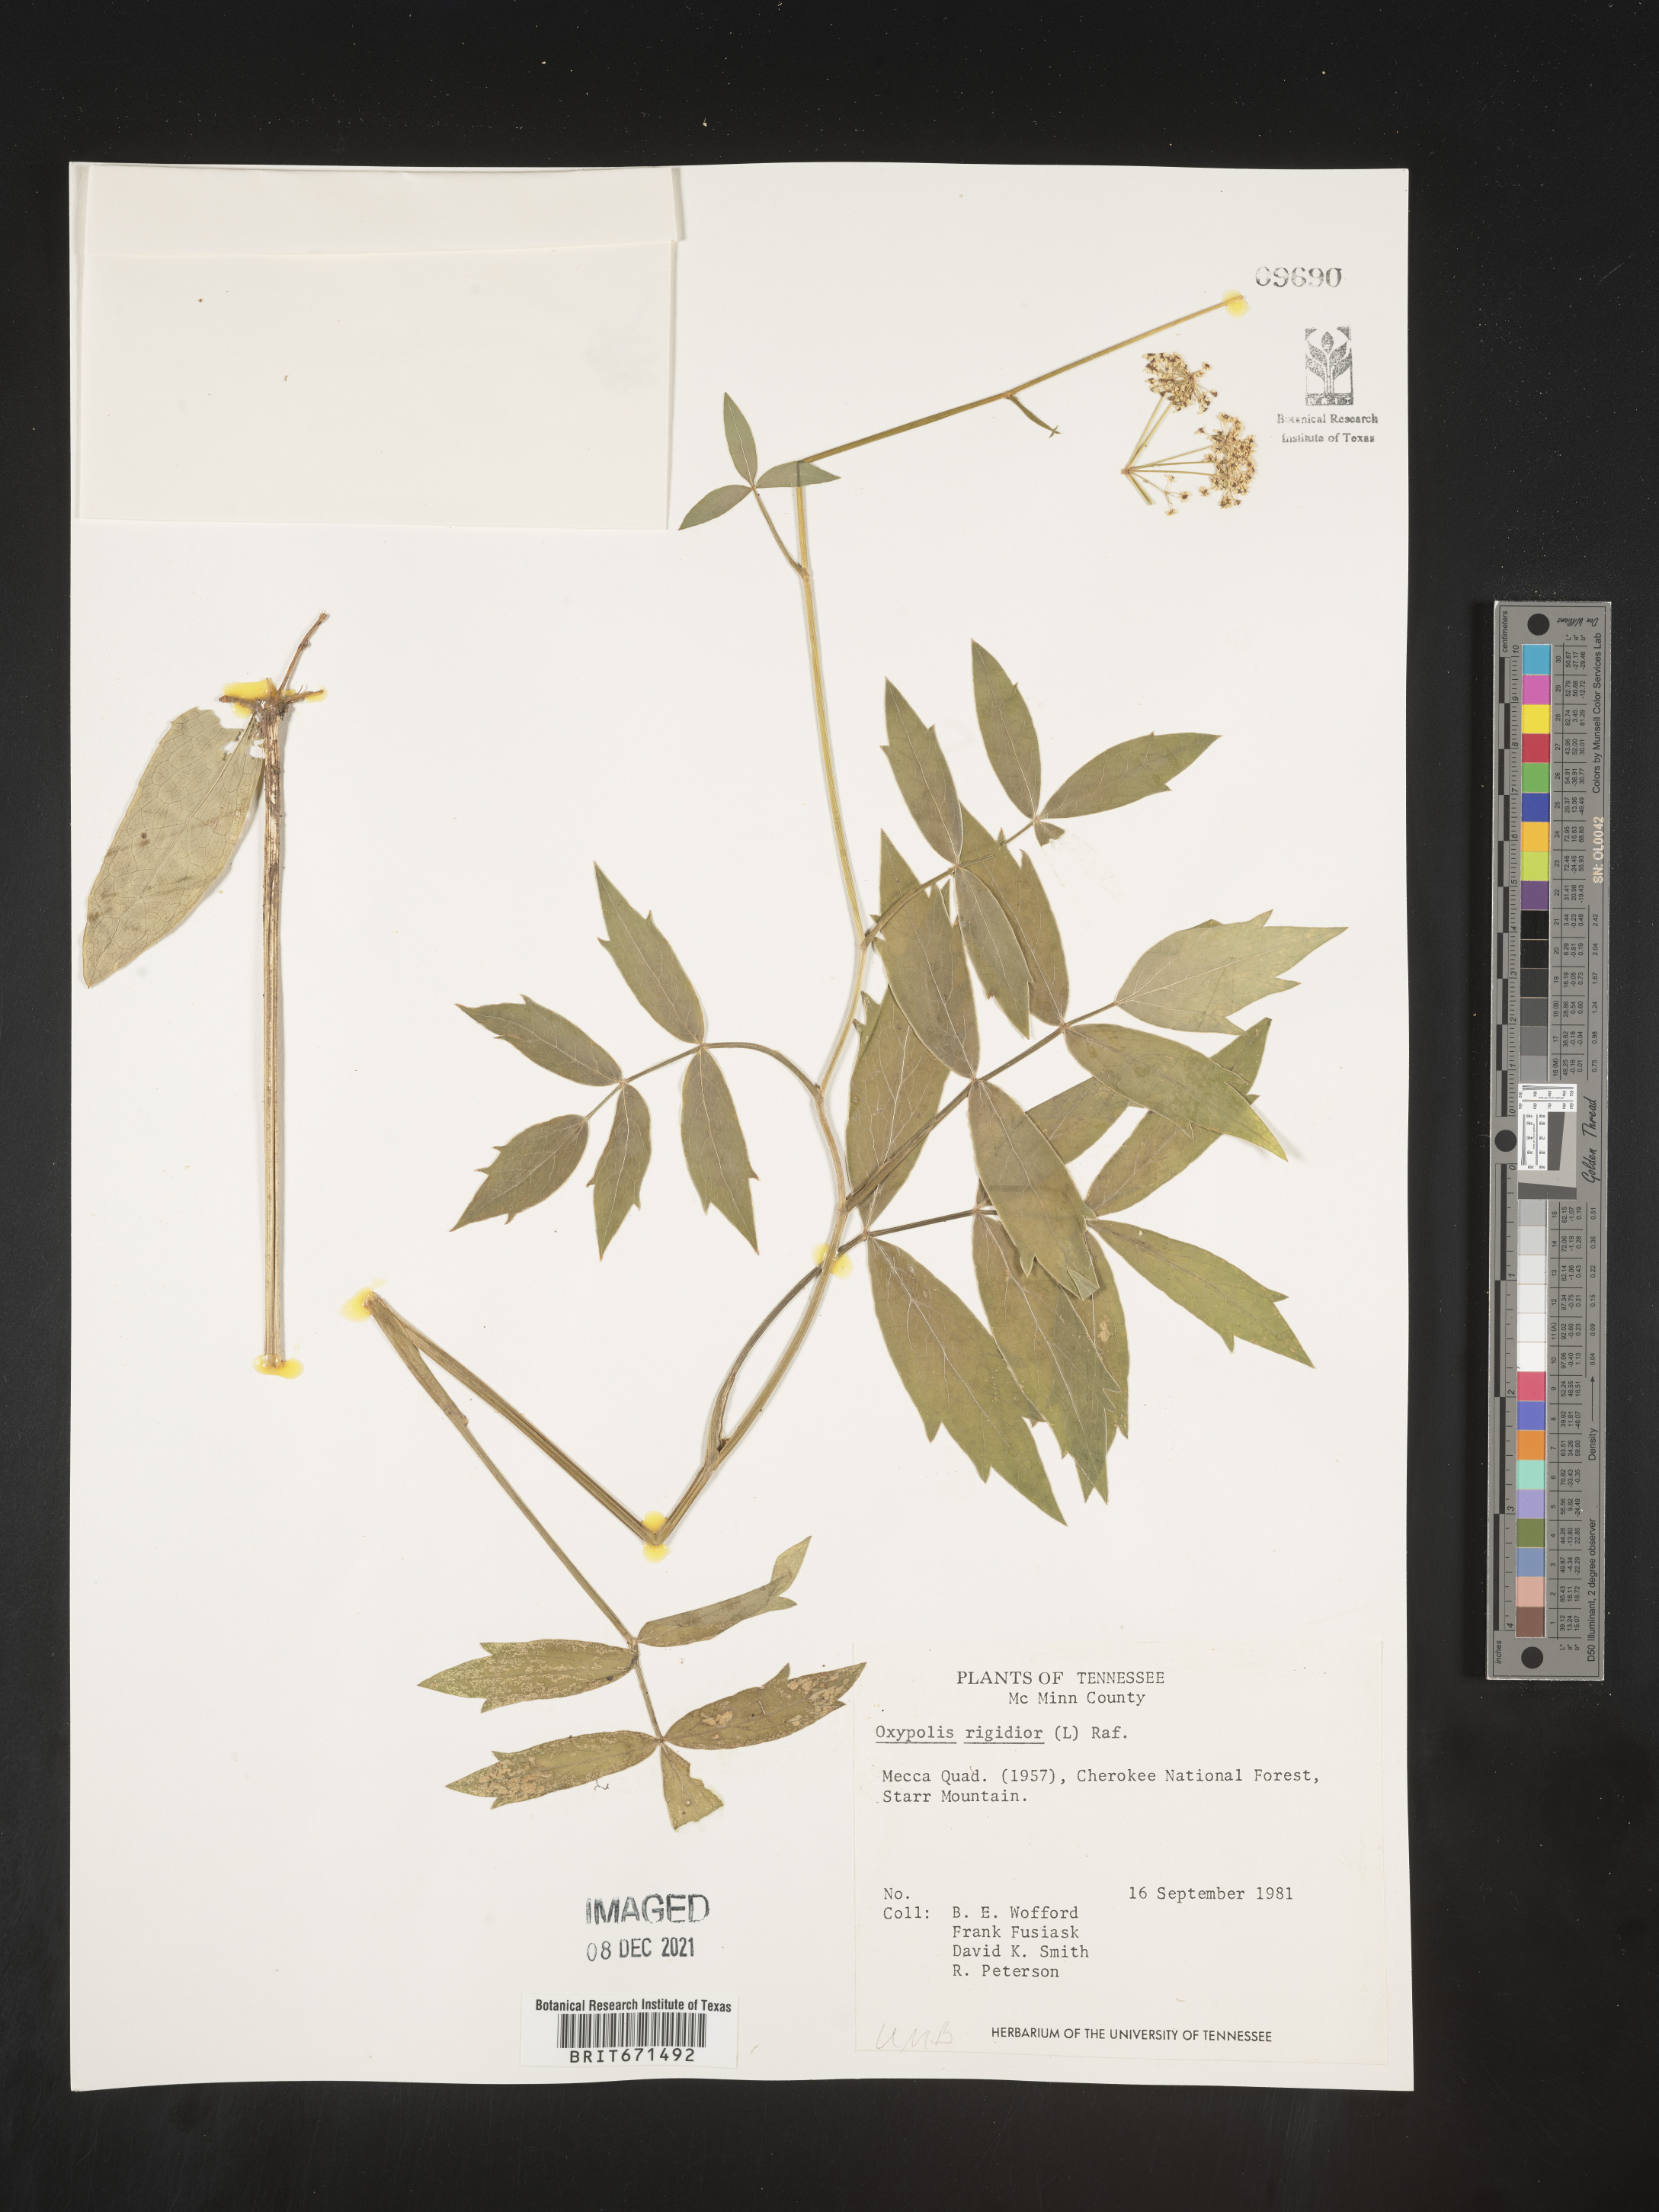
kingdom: Plantae
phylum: Tracheophyta
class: Magnoliopsida
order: Apiales
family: Apiaceae
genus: Oxypolis
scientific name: Oxypolis rigidior
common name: Cowbane
